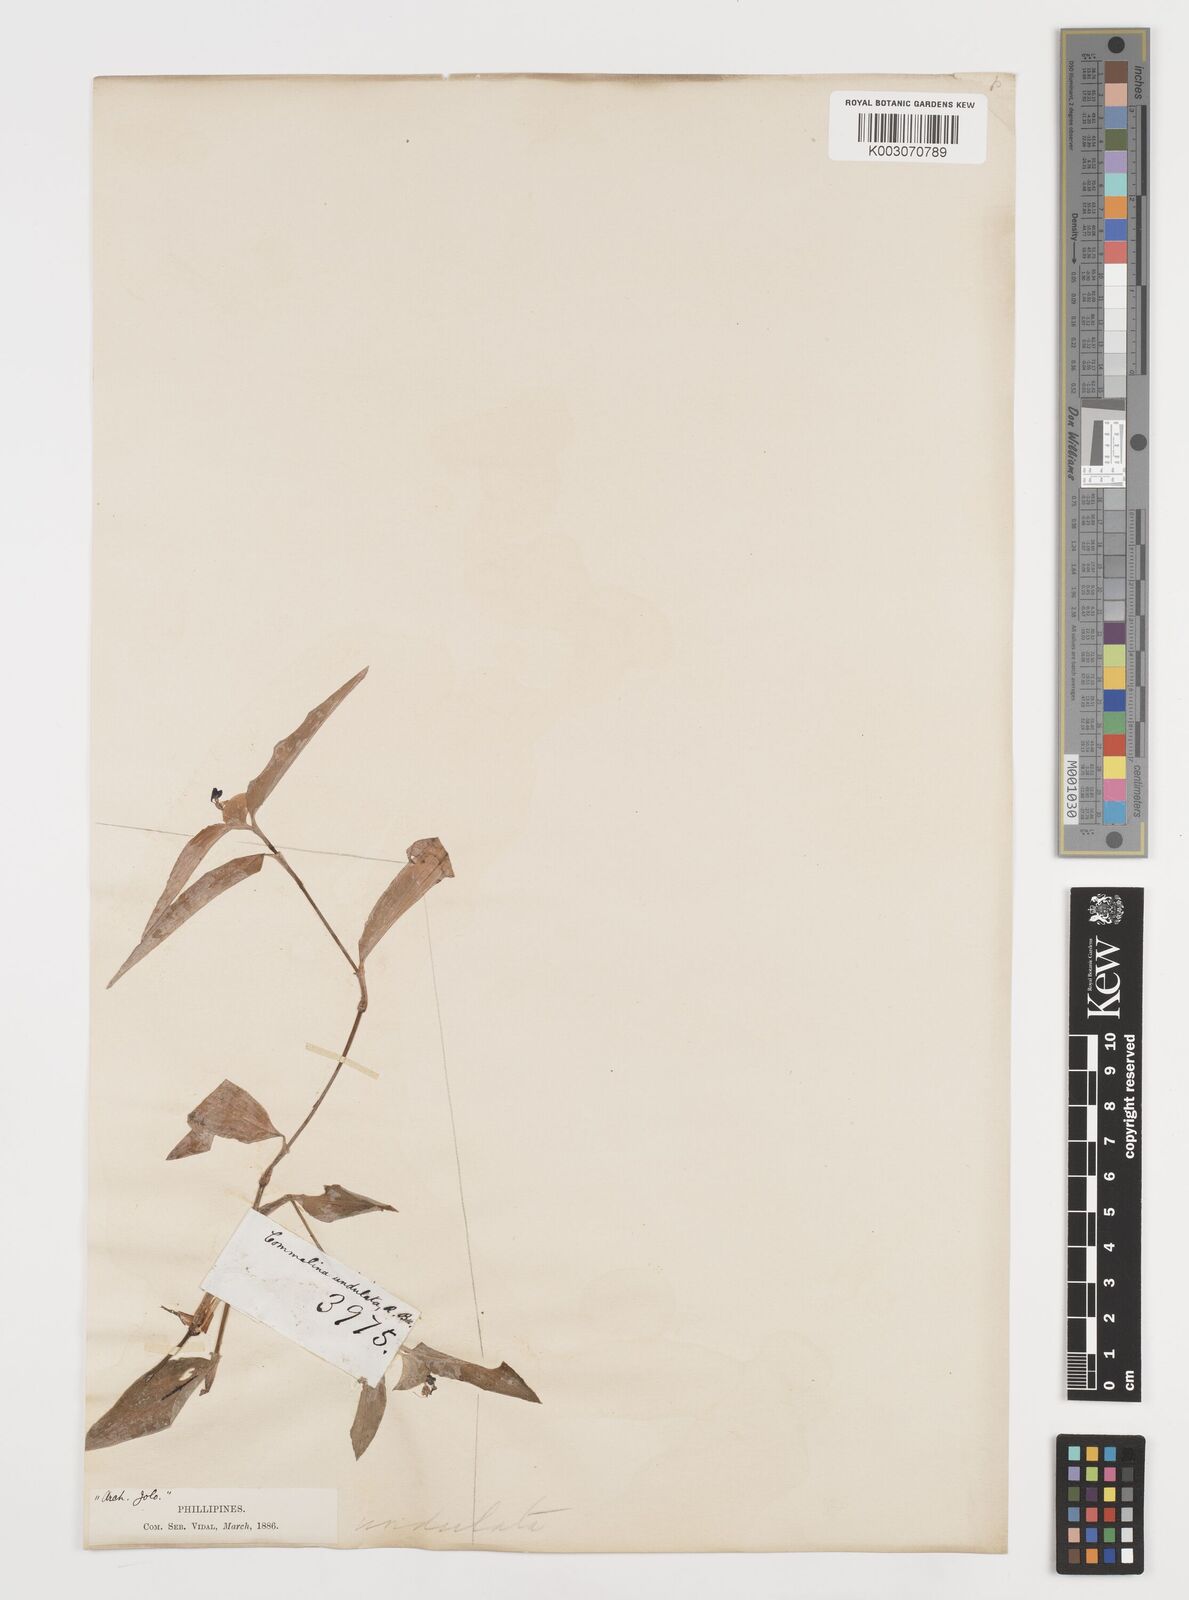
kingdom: Plantae
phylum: Tracheophyta
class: Liliopsida
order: Commelinales
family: Commelinaceae
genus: Commelina
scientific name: Commelina undulata
